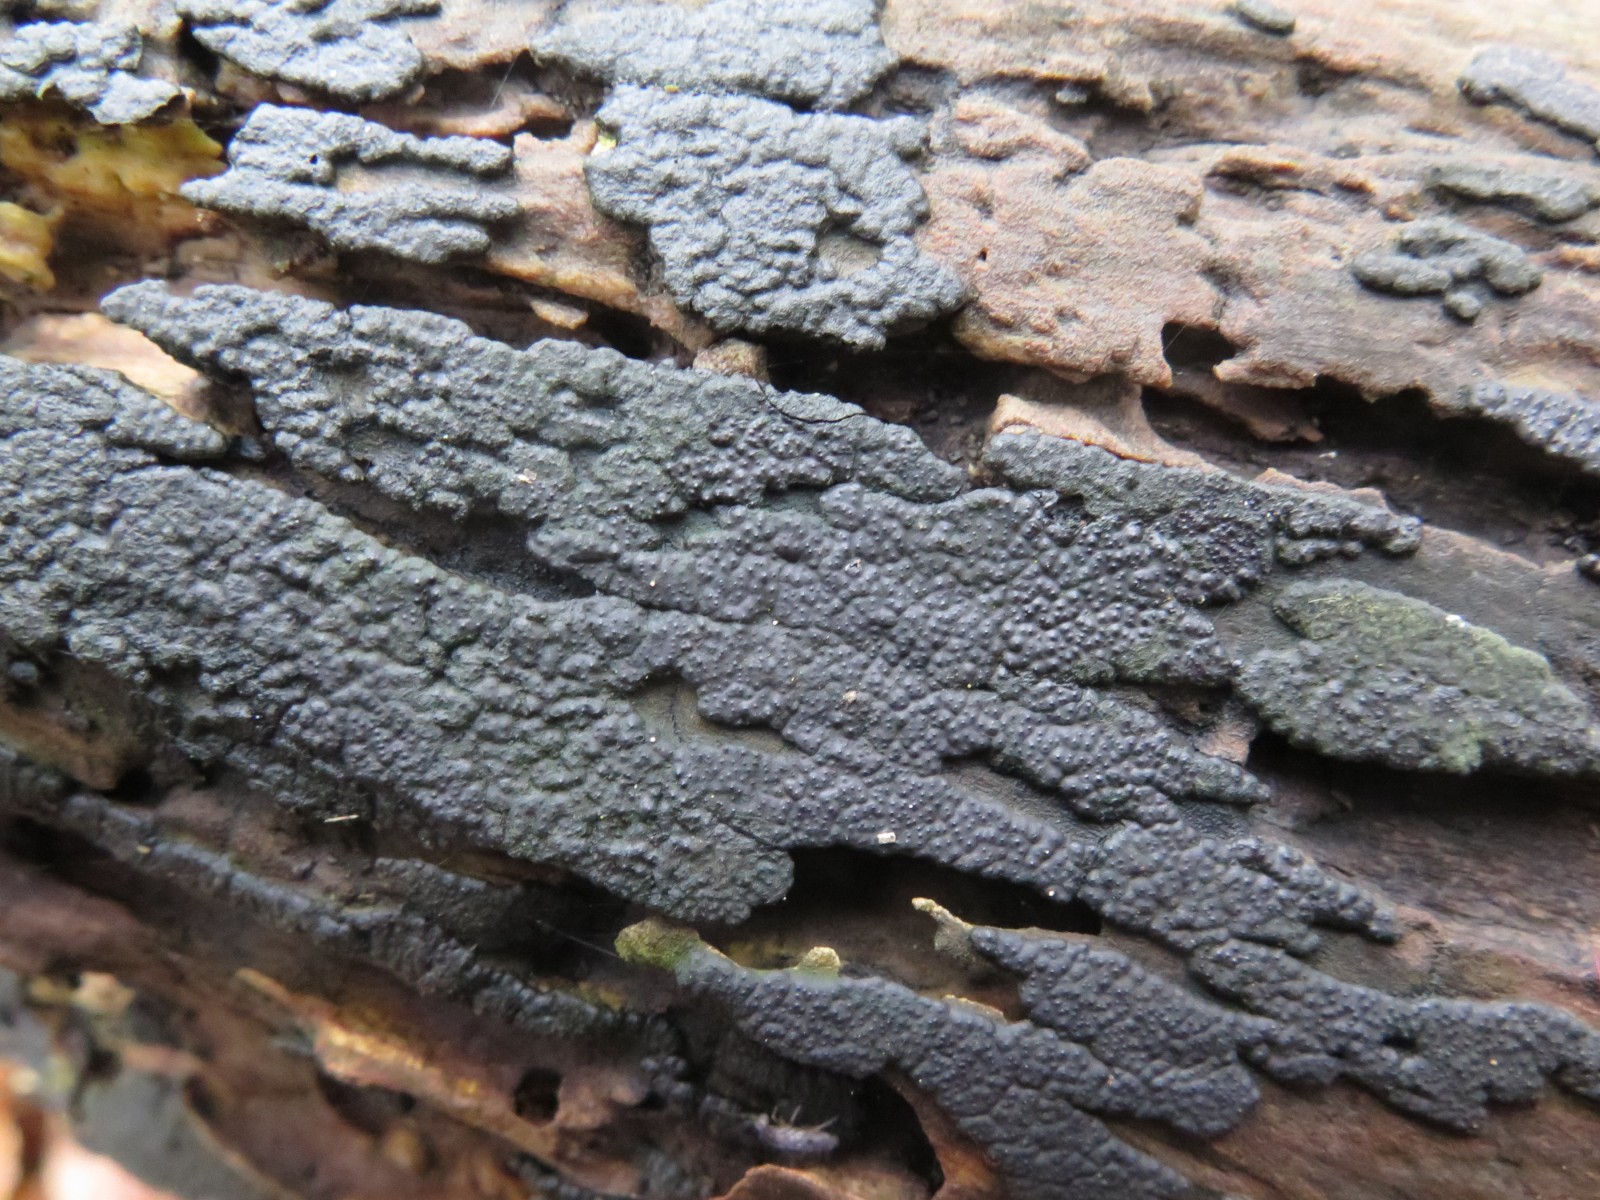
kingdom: Fungi
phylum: Ascomycota
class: Sordariomycetes
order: Xylariales
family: Xylariaceae
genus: Nemania
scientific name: Nemania serpens
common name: almindelig kuldyne
